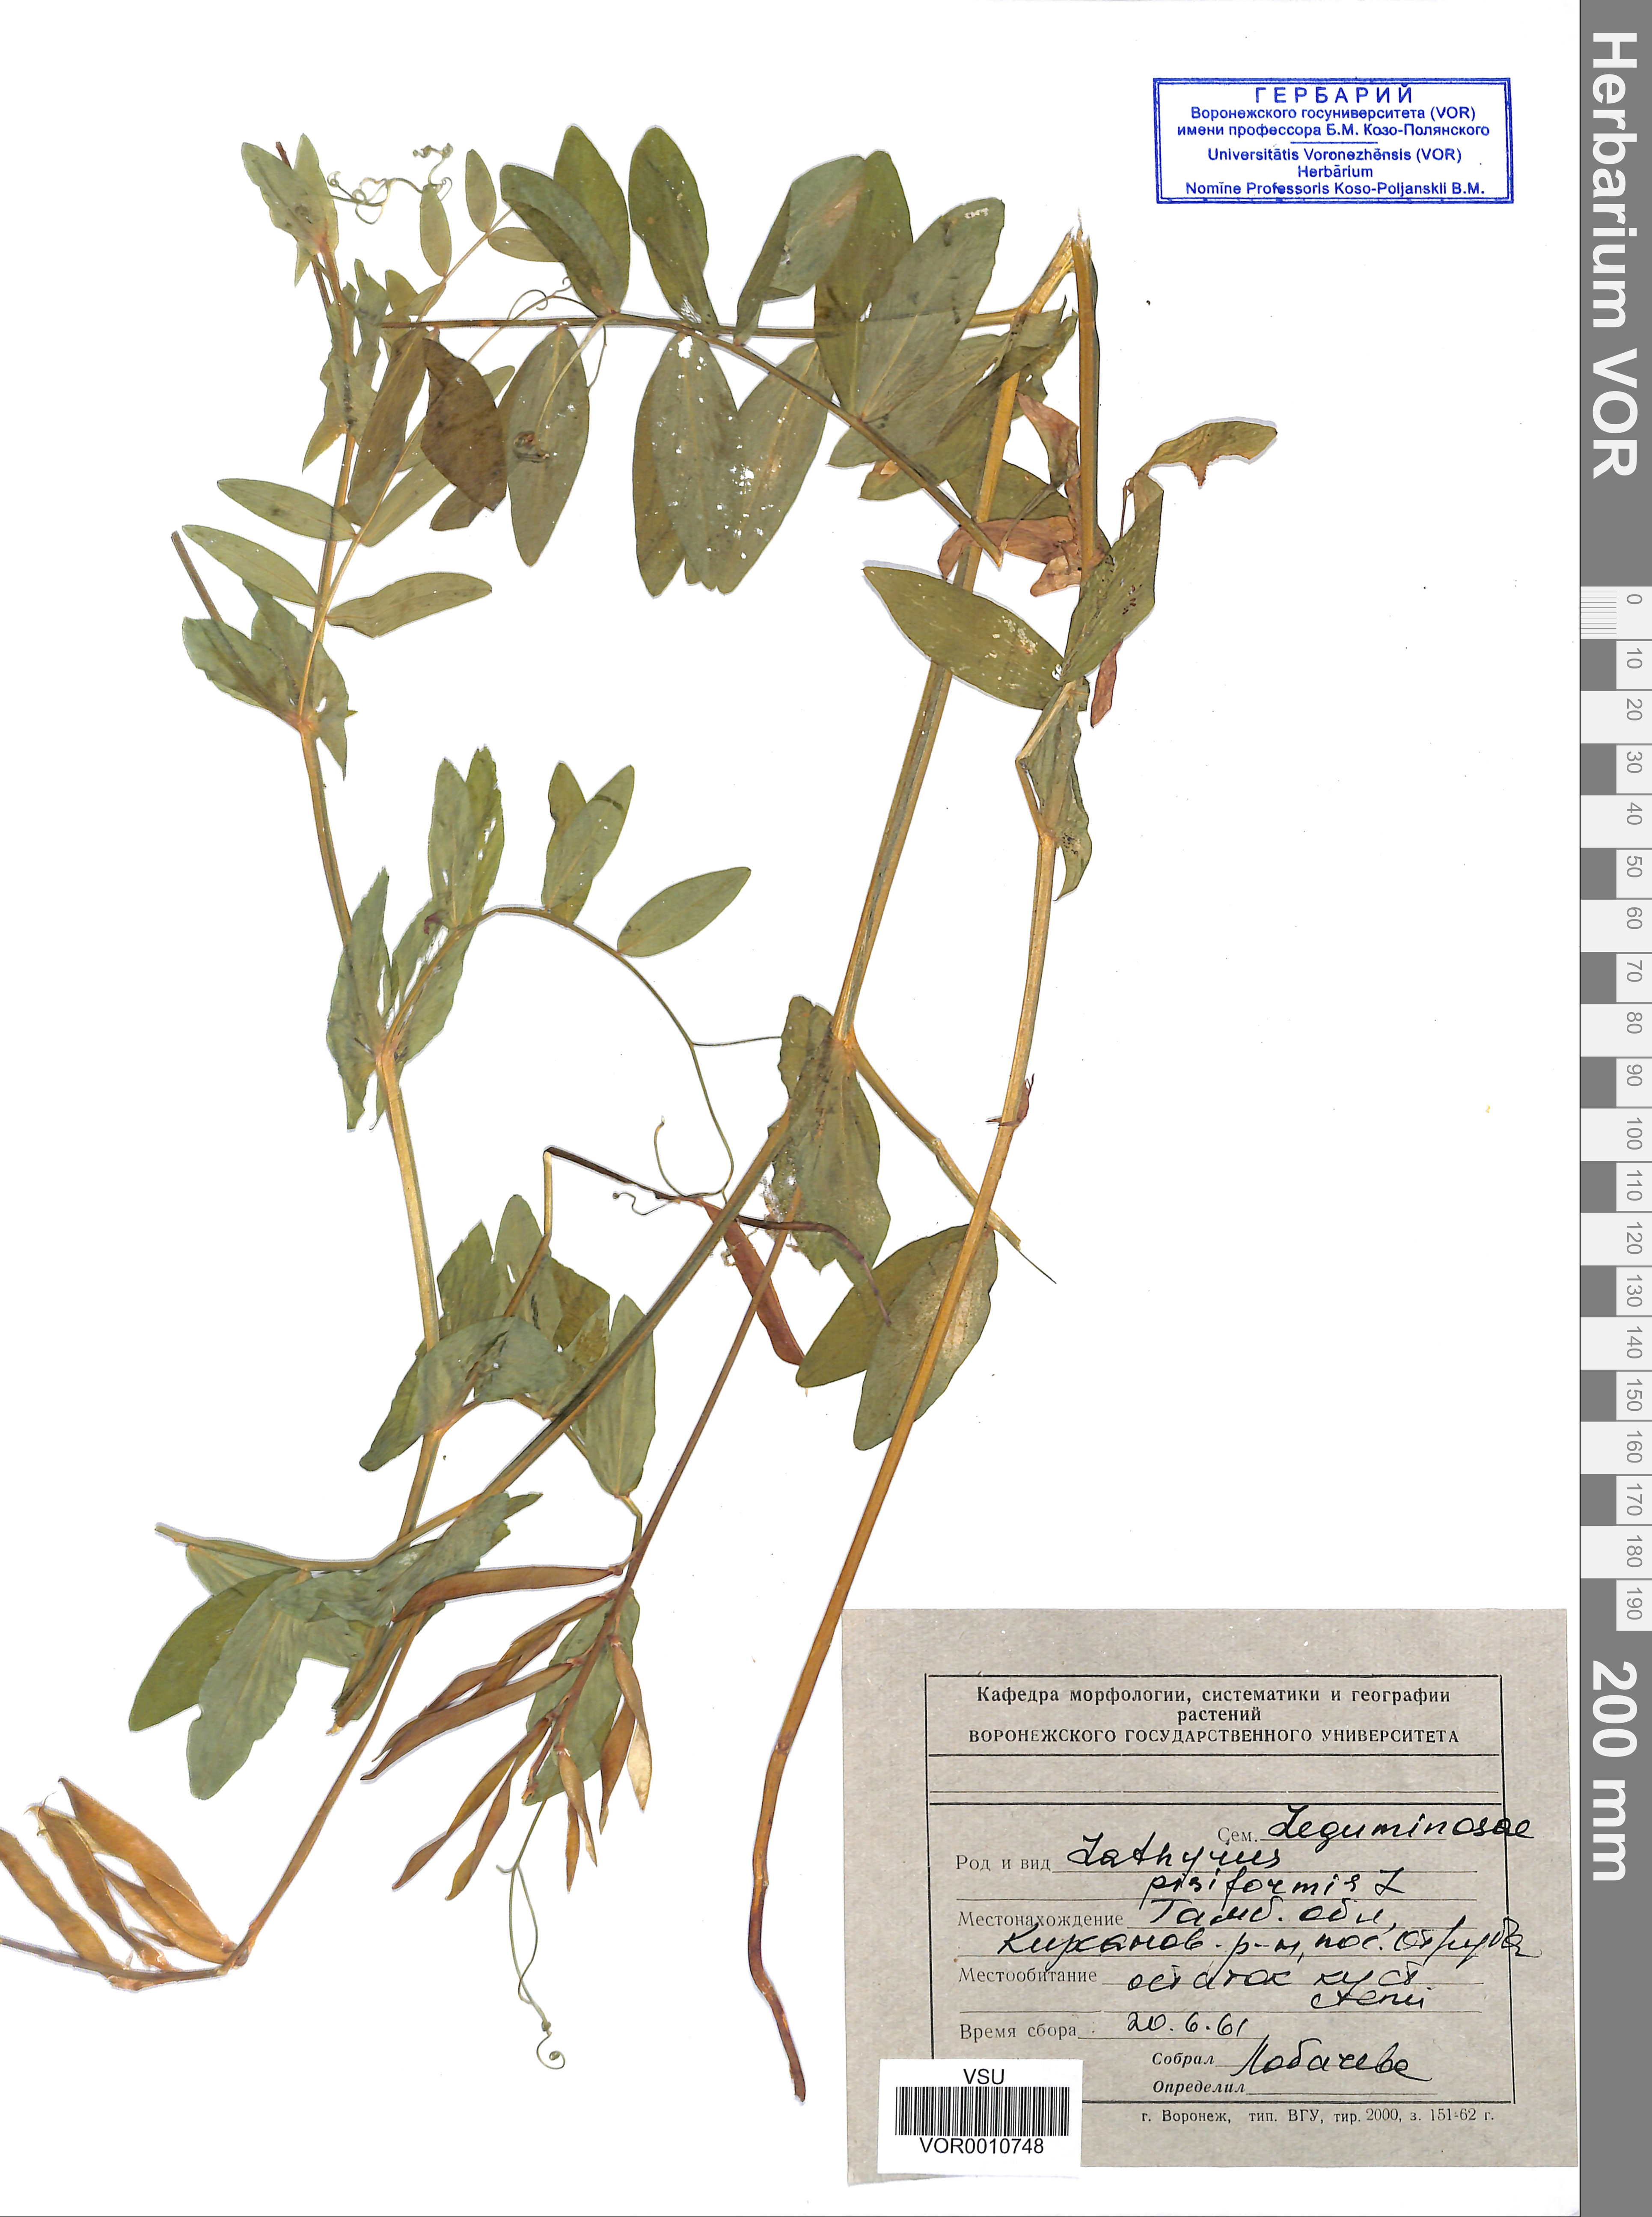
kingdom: Plantae
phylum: Tracheophyta
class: Magnoliopsida
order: Fabales
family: Fabaceae
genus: Lathyrus
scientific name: Lathyrus pisiformis
